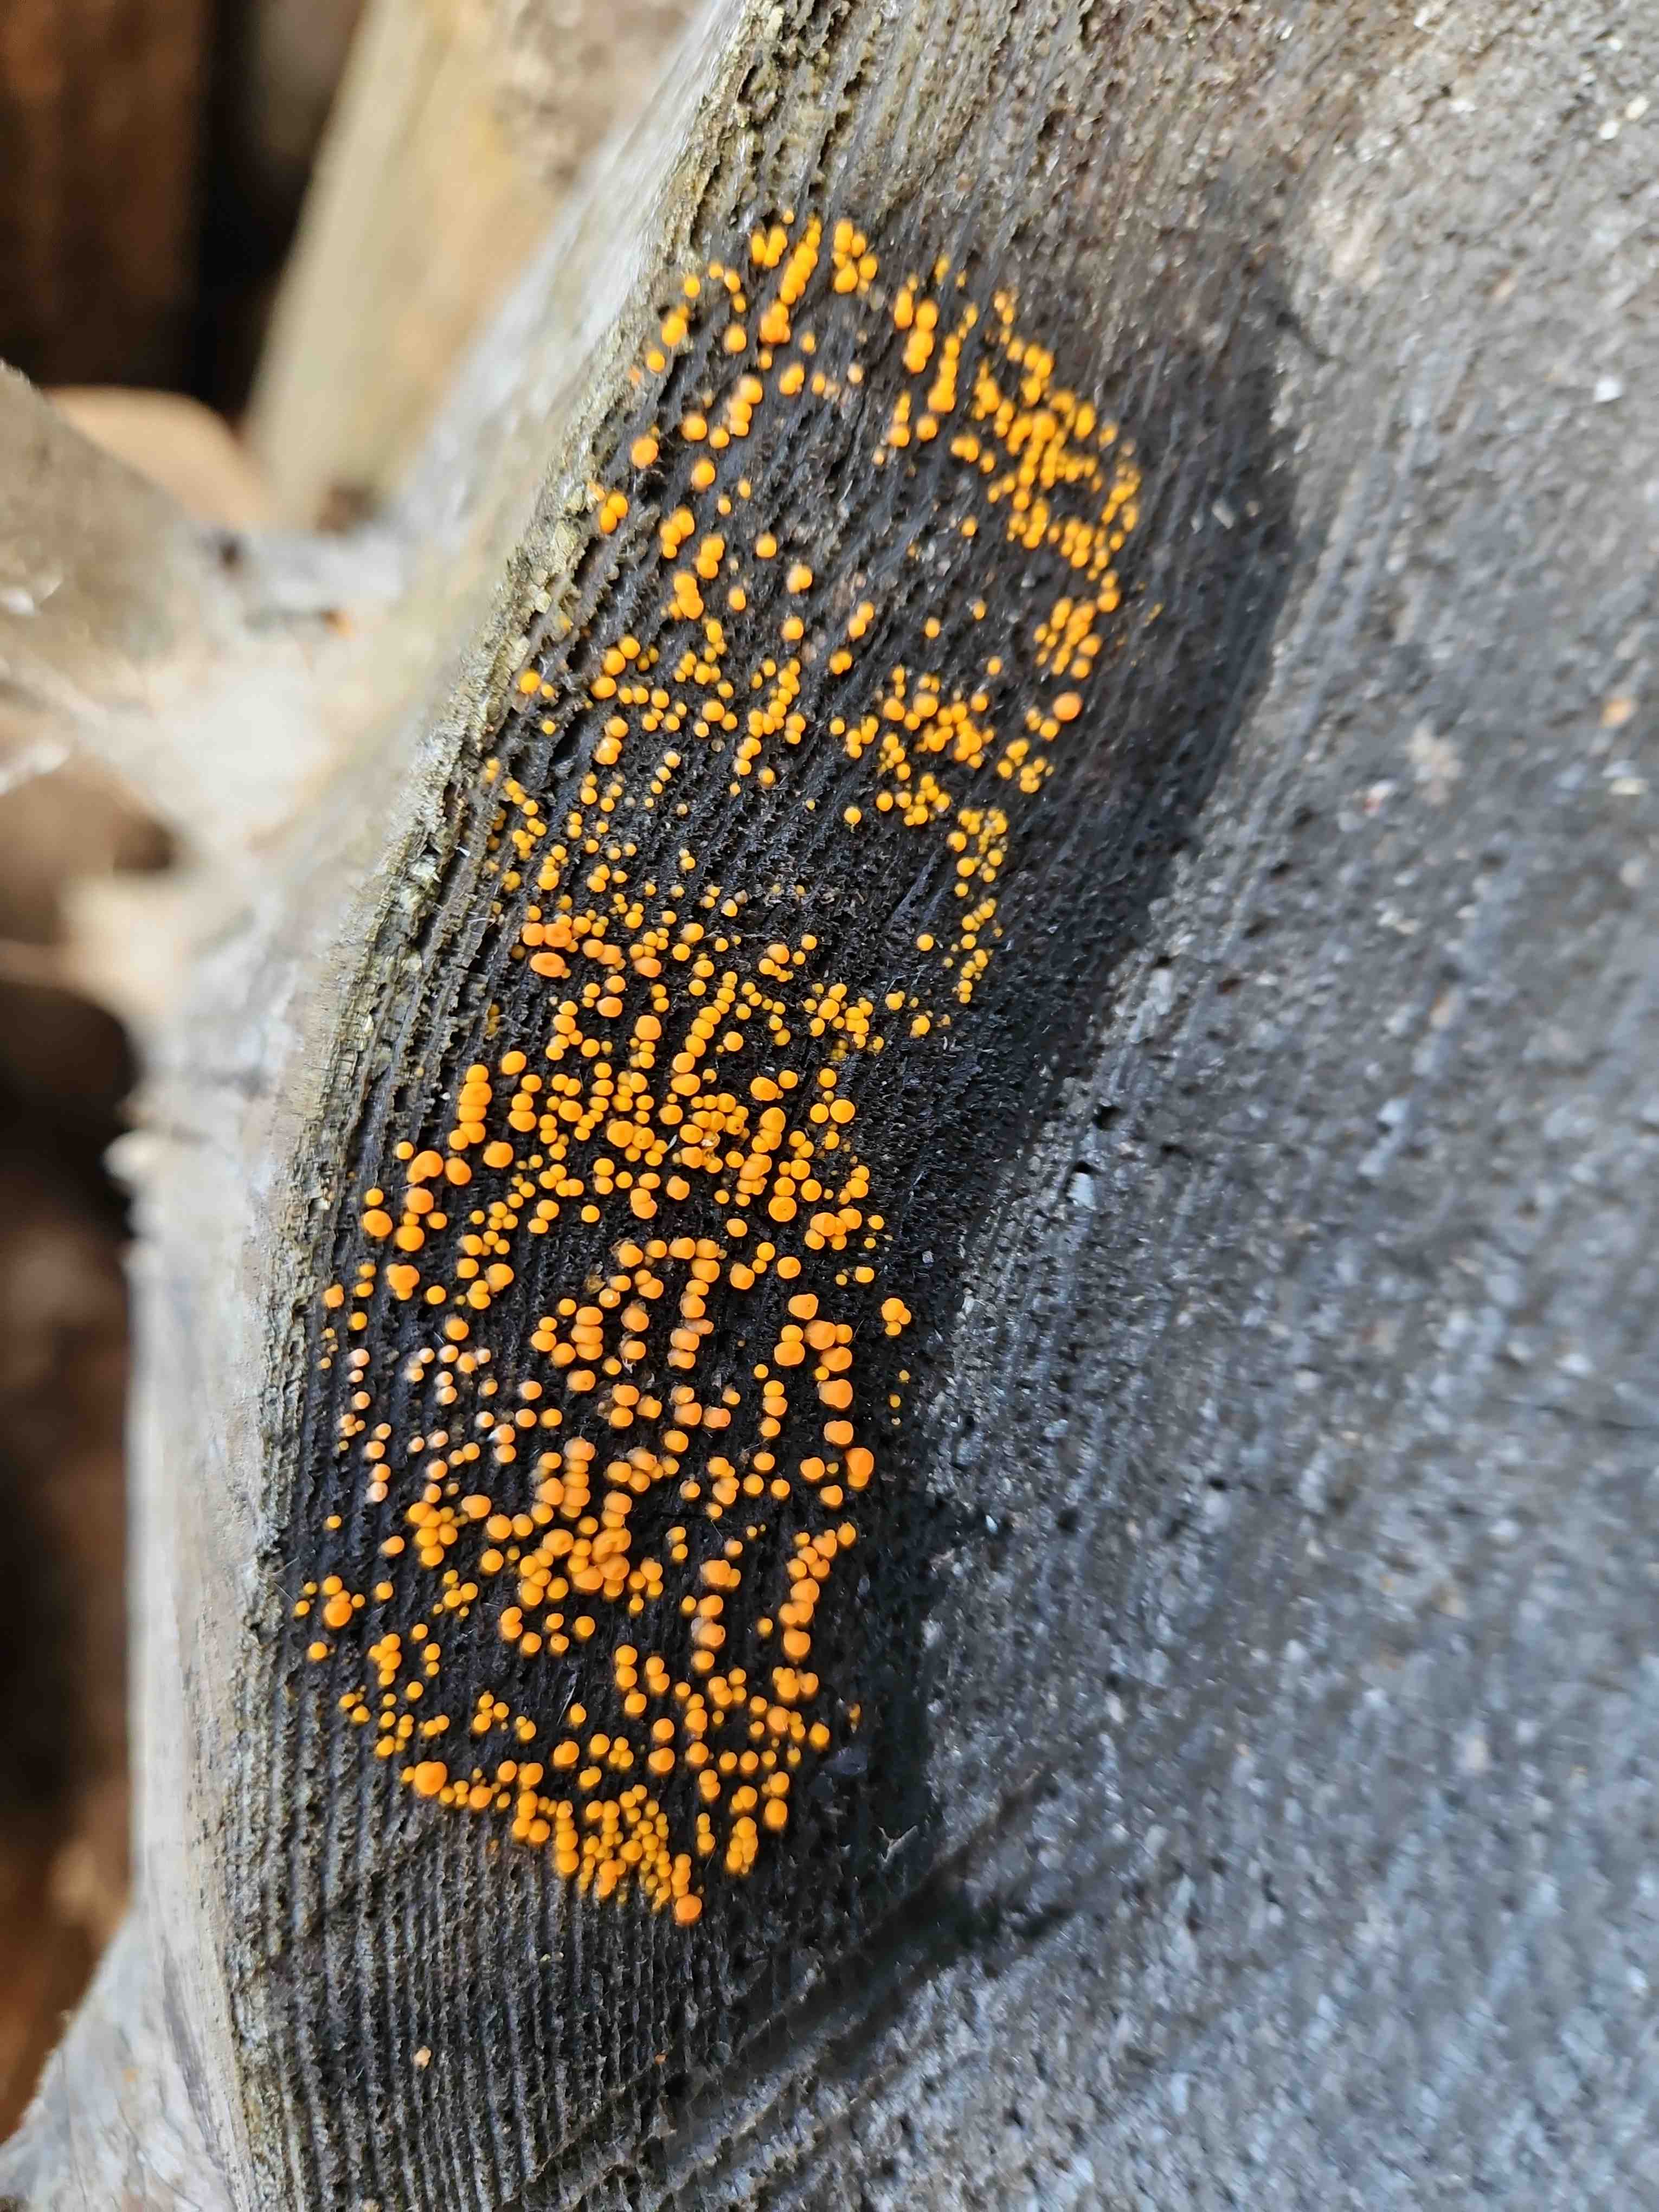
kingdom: Fungi
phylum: Basidiomycota
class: Dacrymycetes
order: Dacrymycetales
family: Dacrymycetaceae
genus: Dacrymyces
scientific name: Dacrymyces stillatus
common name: almindelig tåresvamp
